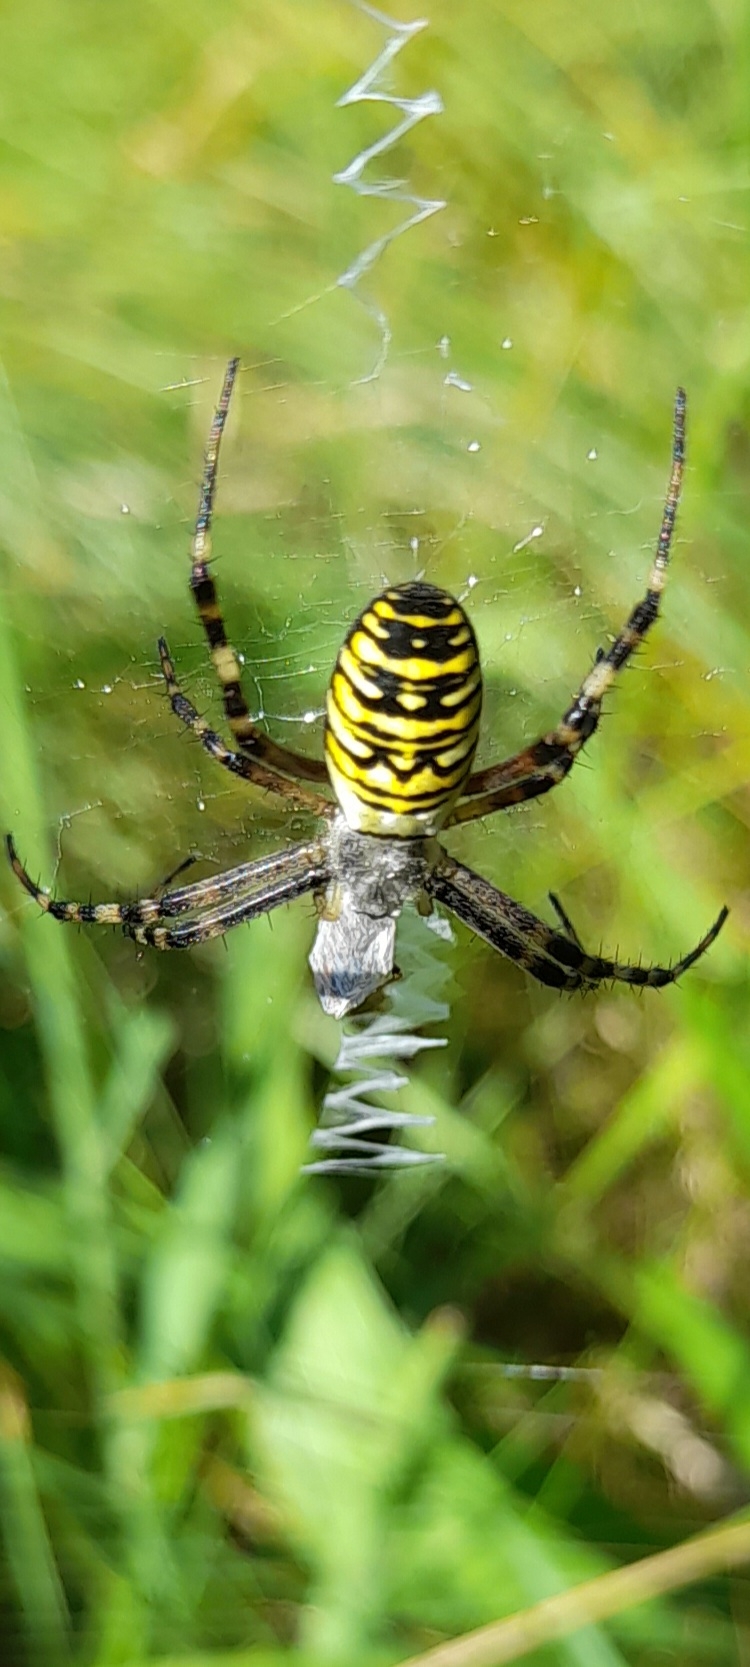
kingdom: Animalia
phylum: Arthropoda
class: Arachnida
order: Araneae
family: Araneidae
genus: Argiope
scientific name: Argiope bruennichi
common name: Hvepseedderkop
